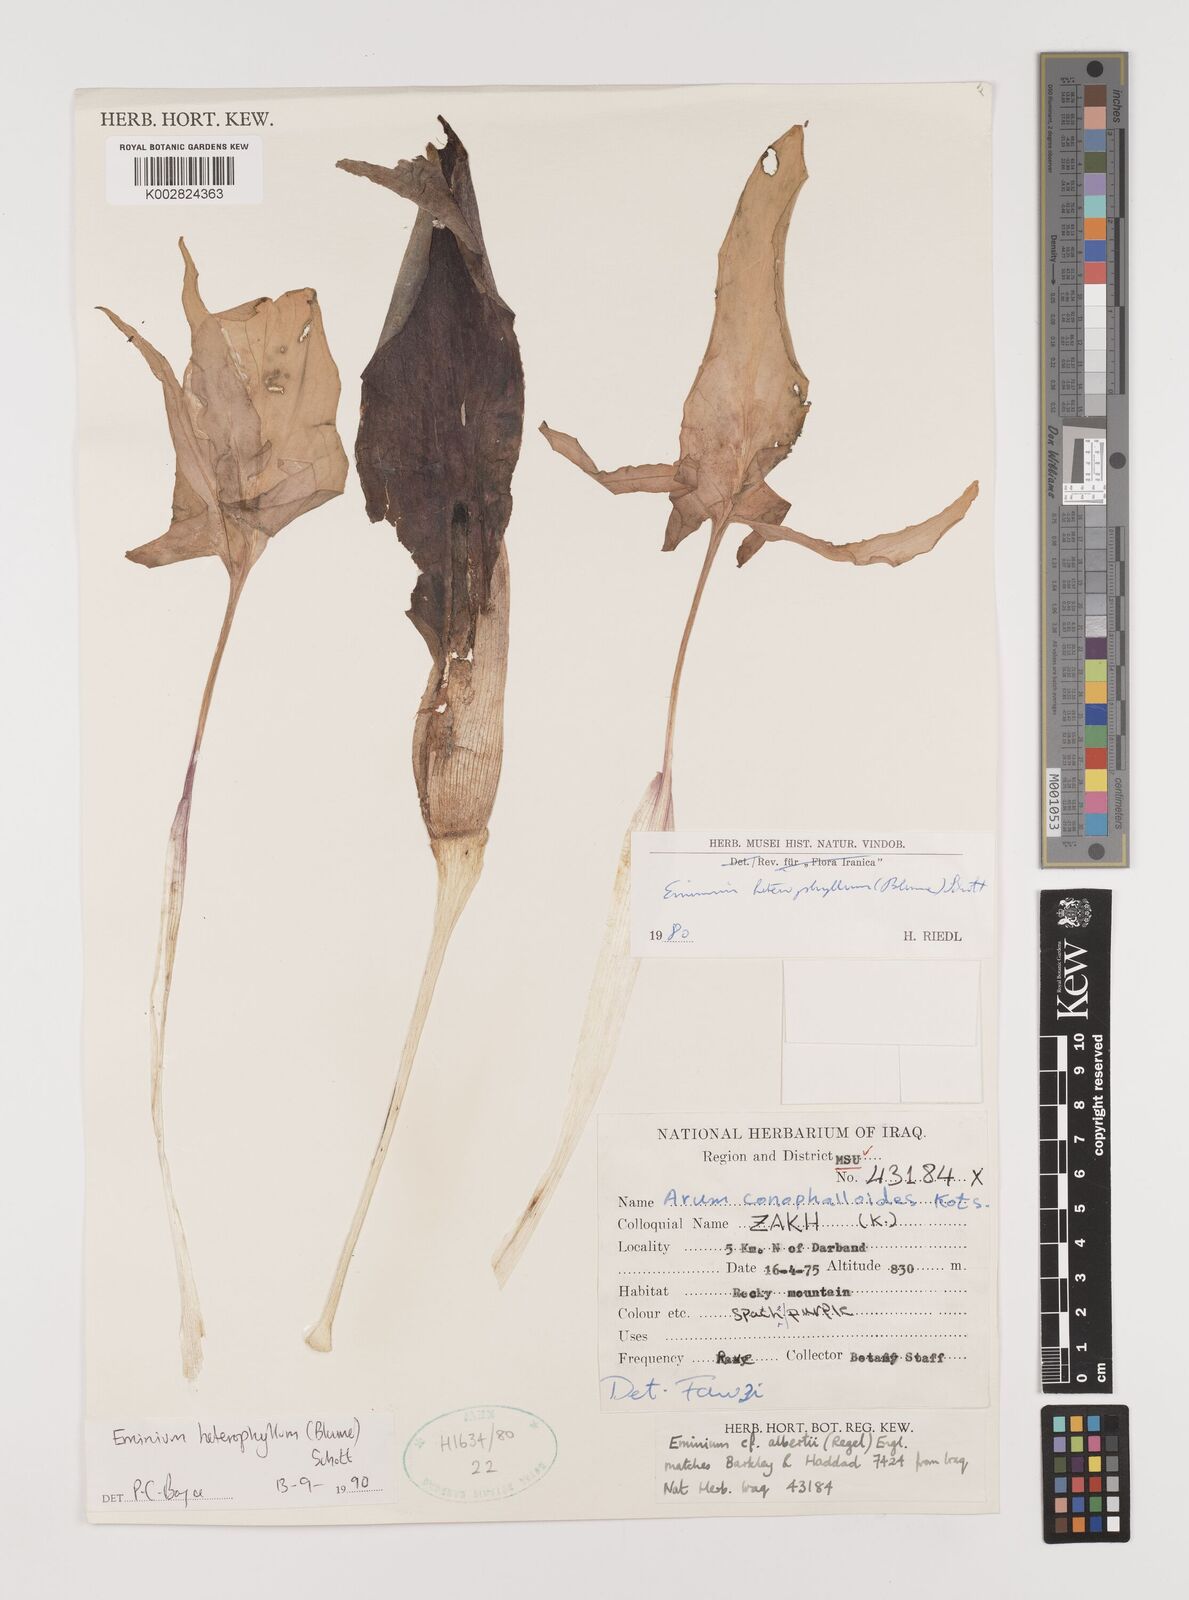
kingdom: Plantae
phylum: Tracheophyta
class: Liliopsida
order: Alismatales
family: Araceae
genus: Eminium
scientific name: Eminium rauwolffii
